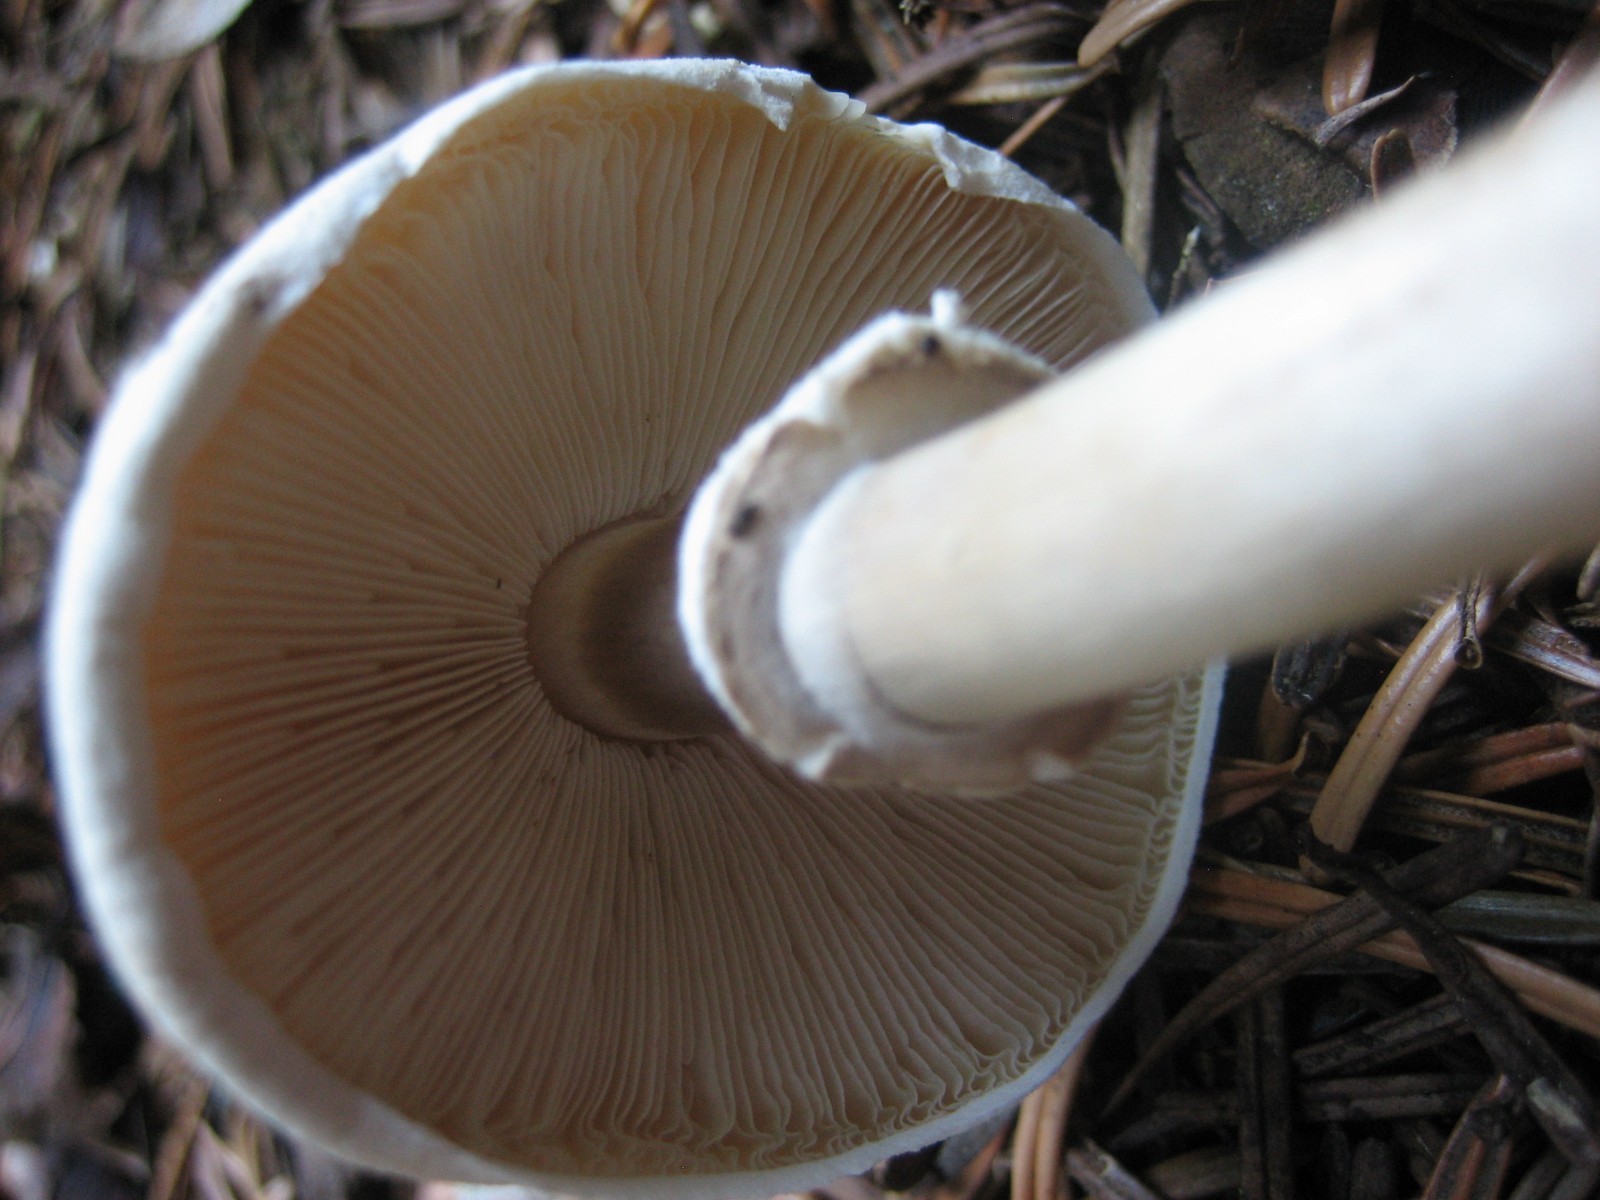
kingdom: Fungi
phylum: Basidiomycota
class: Agaricomycetes
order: Agaricales
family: Agaricaceae
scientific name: Agaricaceae
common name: champignonfamilien
